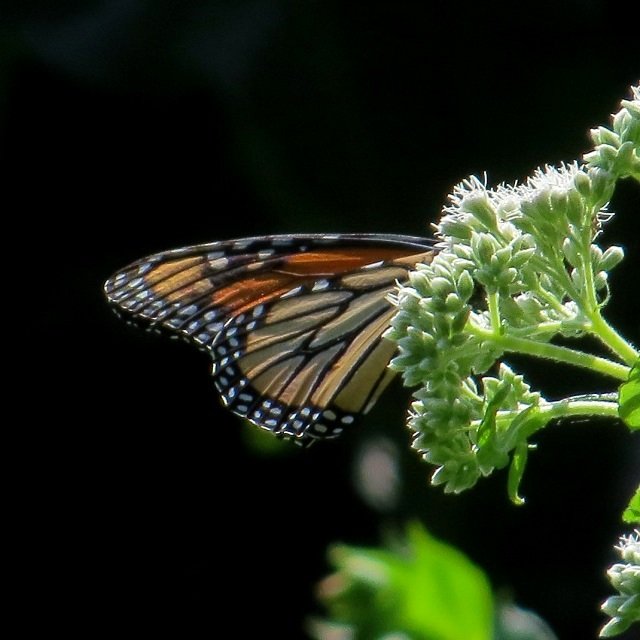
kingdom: Animalia
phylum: Arthropoda
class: Insecta
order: Lepidoptera
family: Nymphalidae
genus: Danaus
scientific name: Danaus plexippus
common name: Monarch
